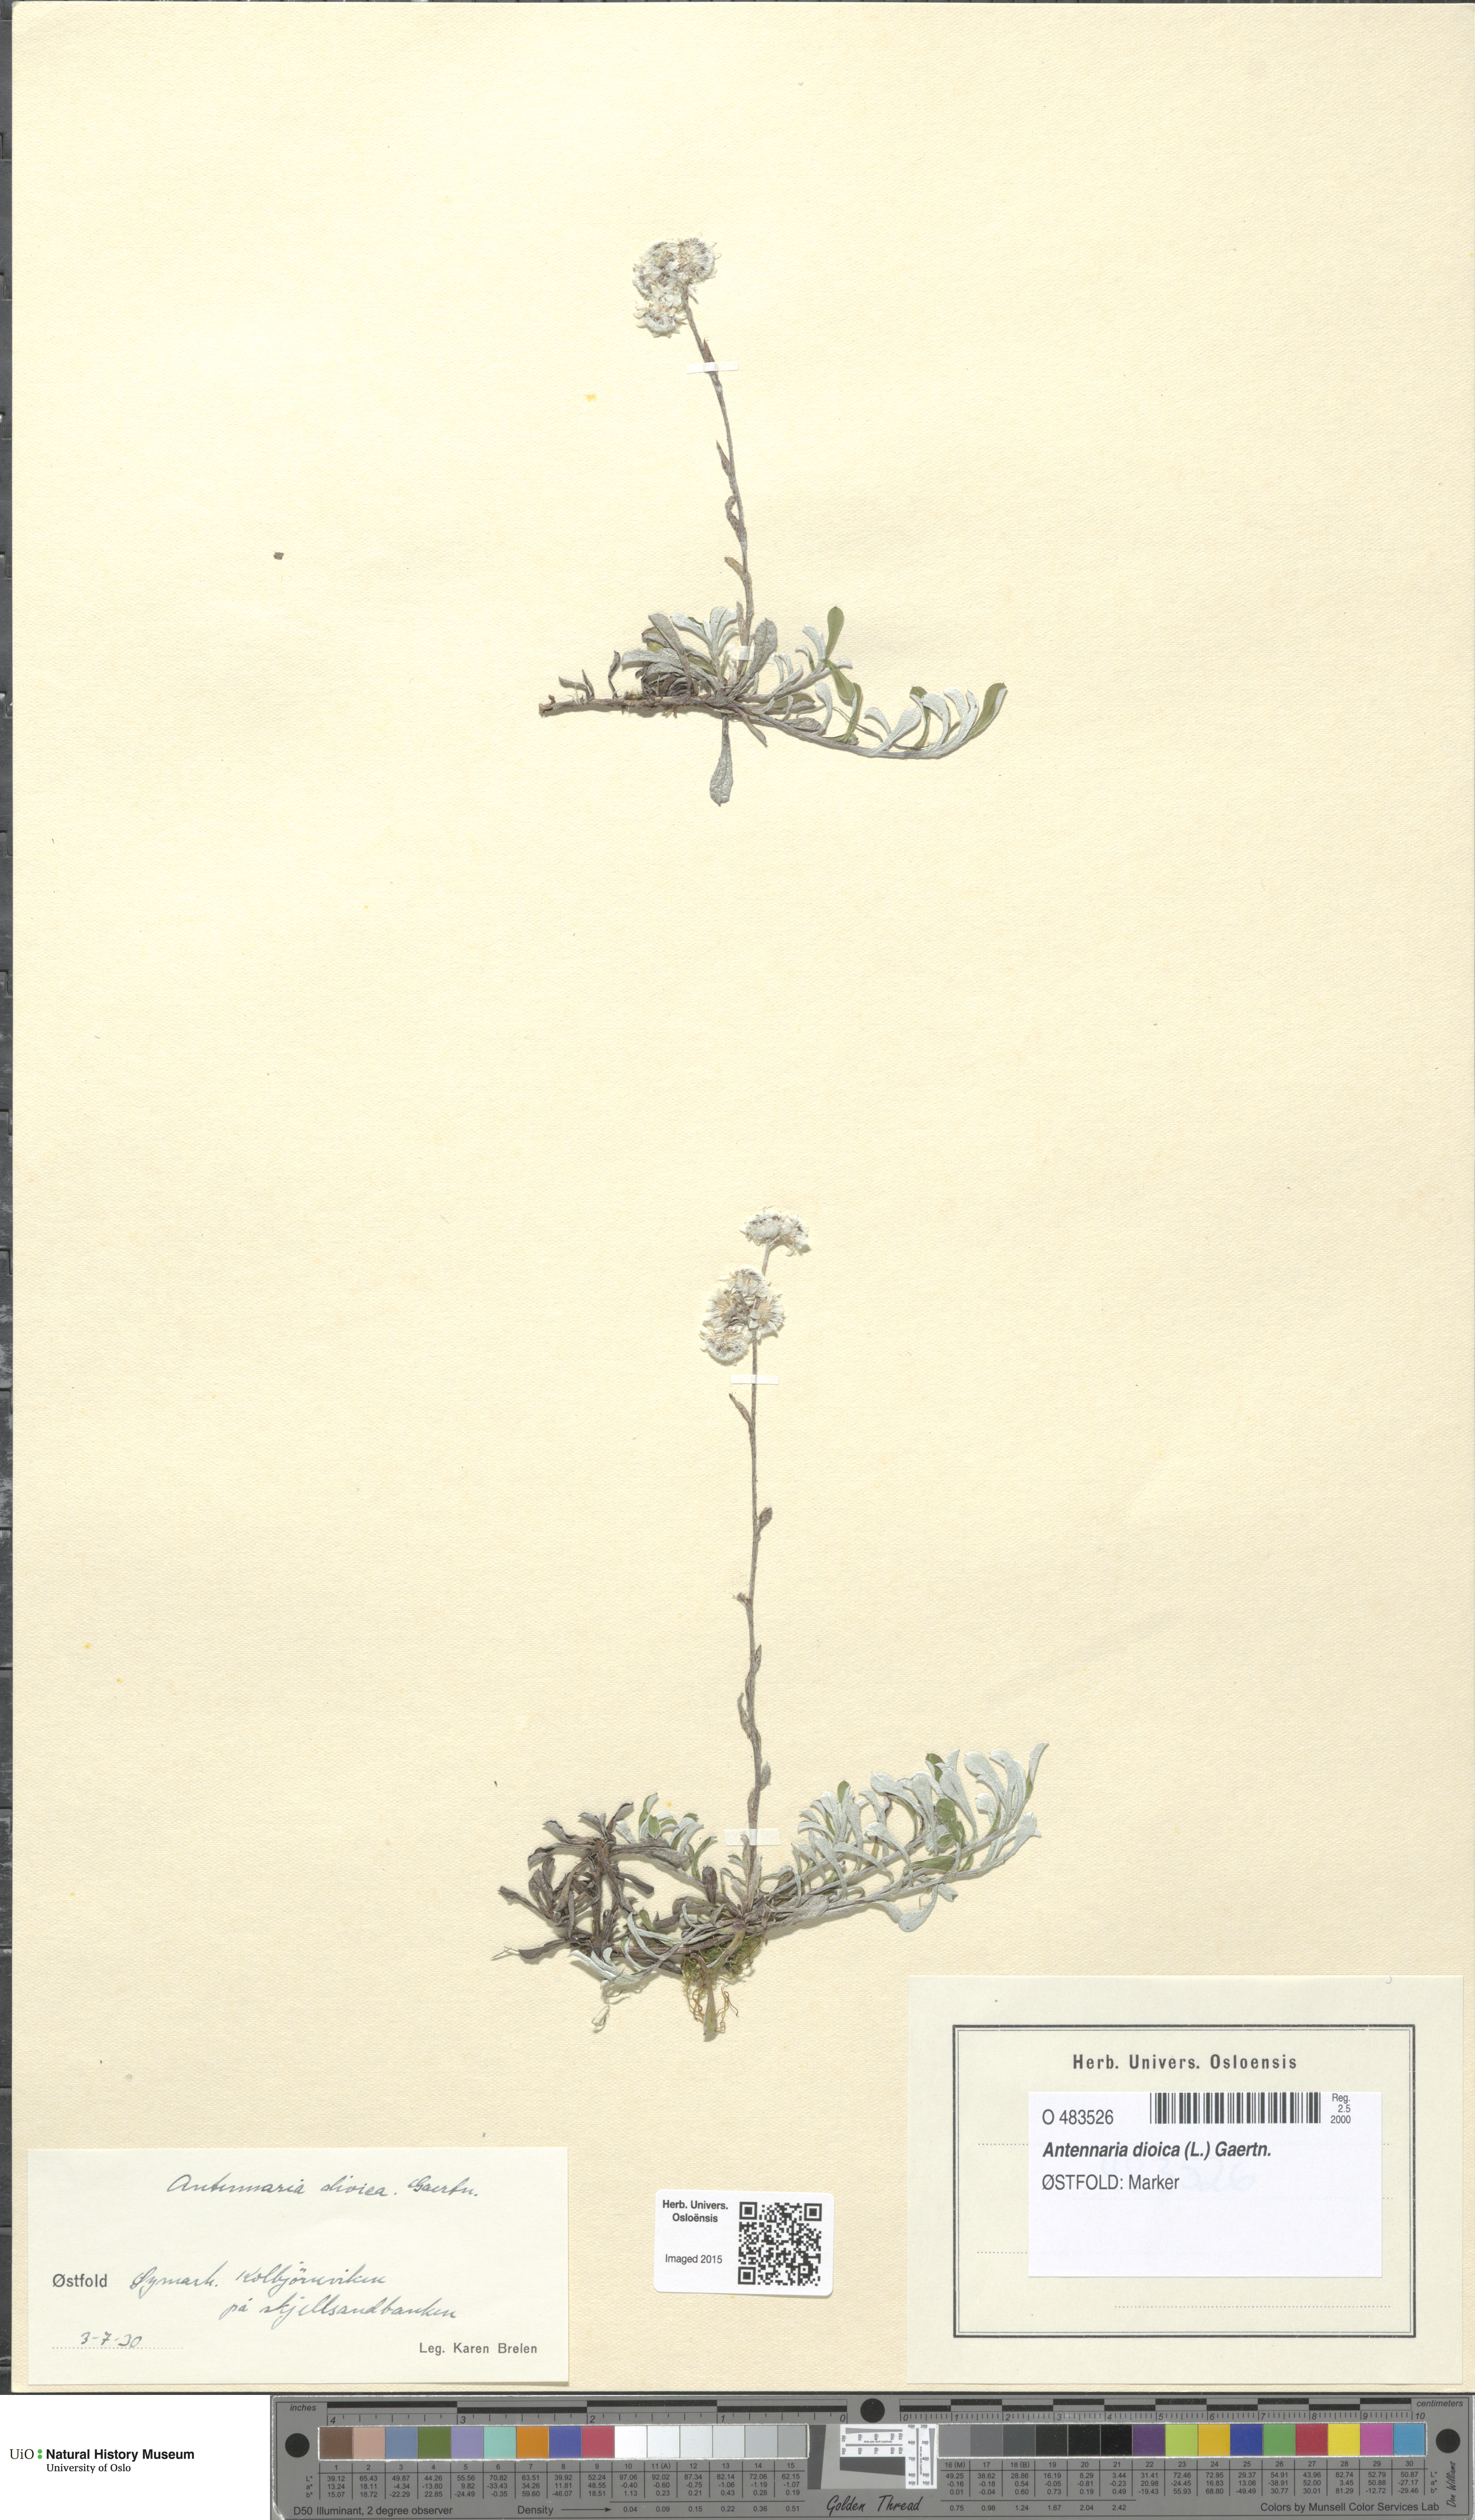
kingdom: Plantae
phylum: Tracheophyta
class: Magnoliopsida
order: Asterales
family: Asteraceae
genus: Antennaria
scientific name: Antennaria dioica
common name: Mountain everlasting
